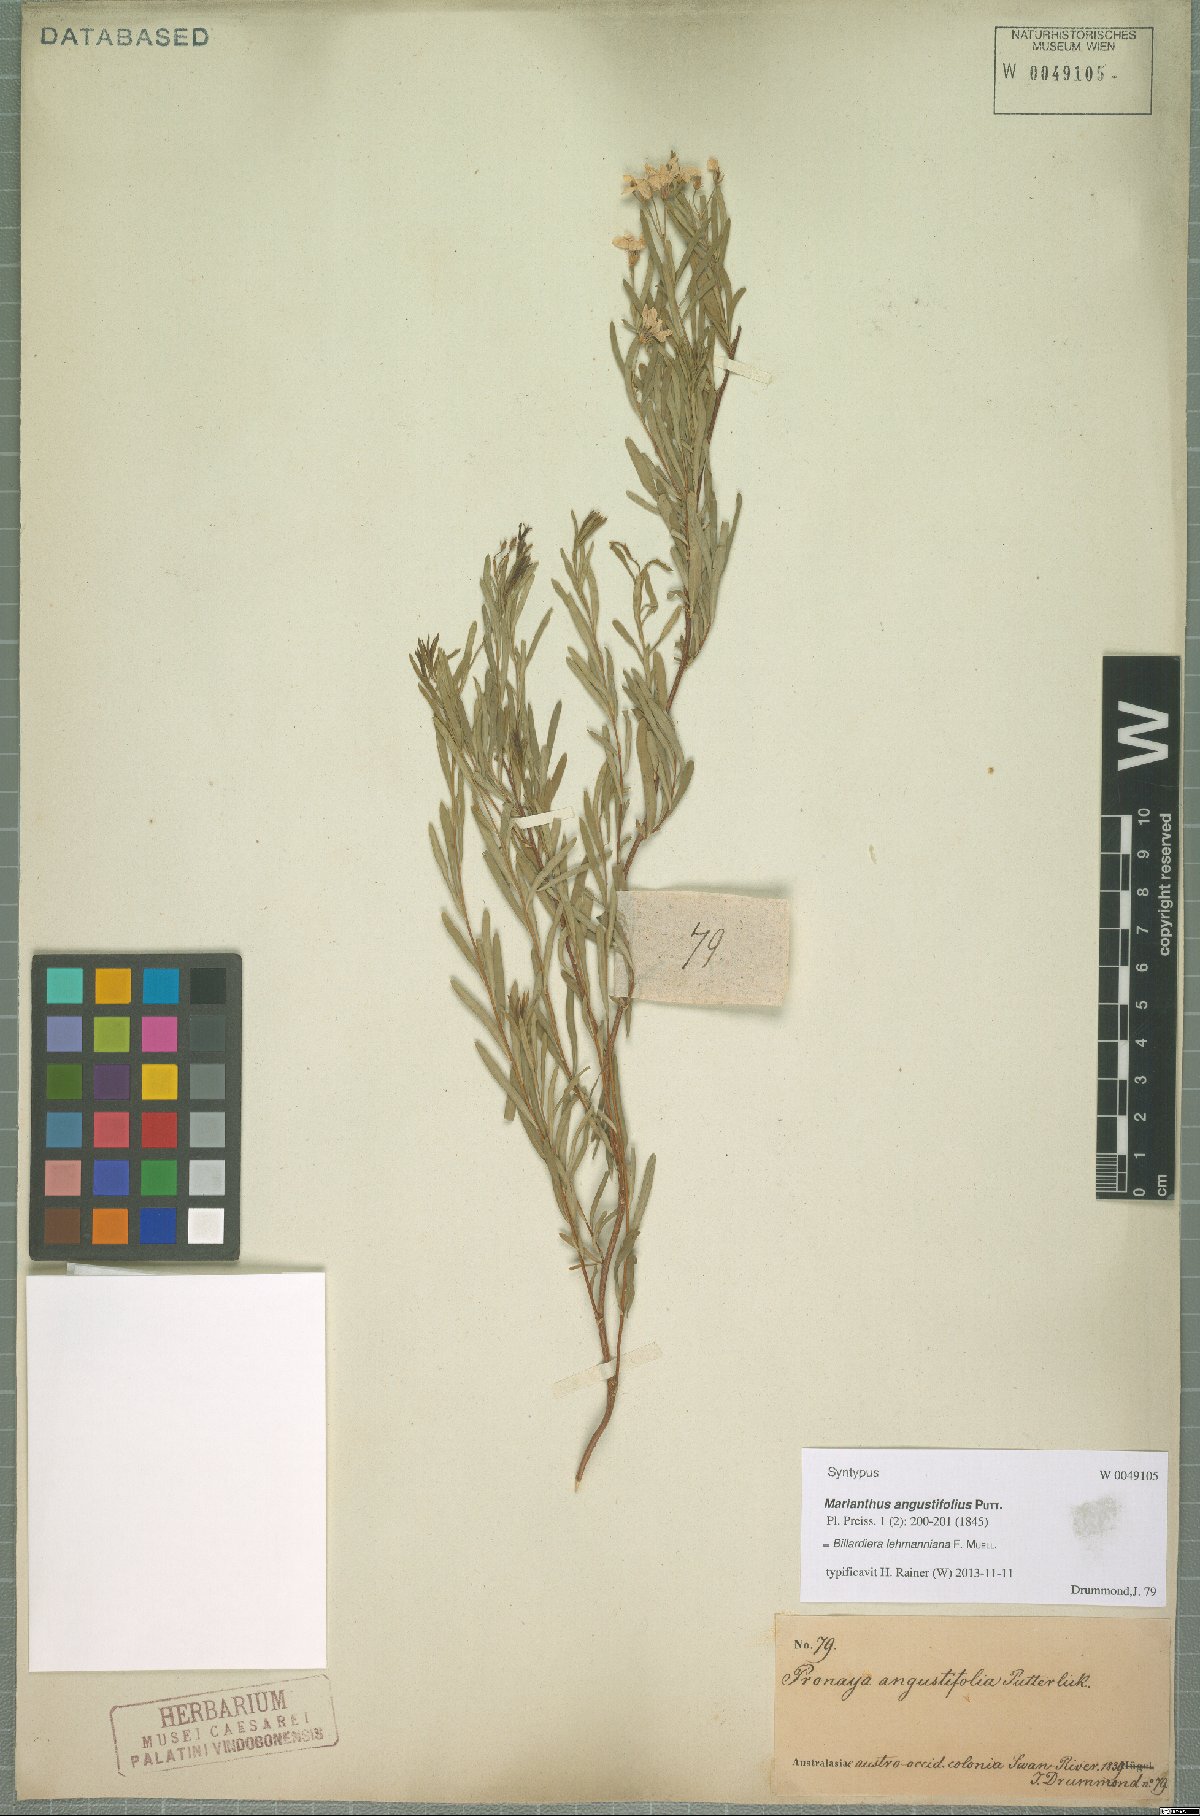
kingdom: Plantae
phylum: Tracheophyta
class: Magnoliopsida
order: Apiales
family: Pittosporaceae
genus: Billardiera
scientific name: Billardiera lehmanniana
